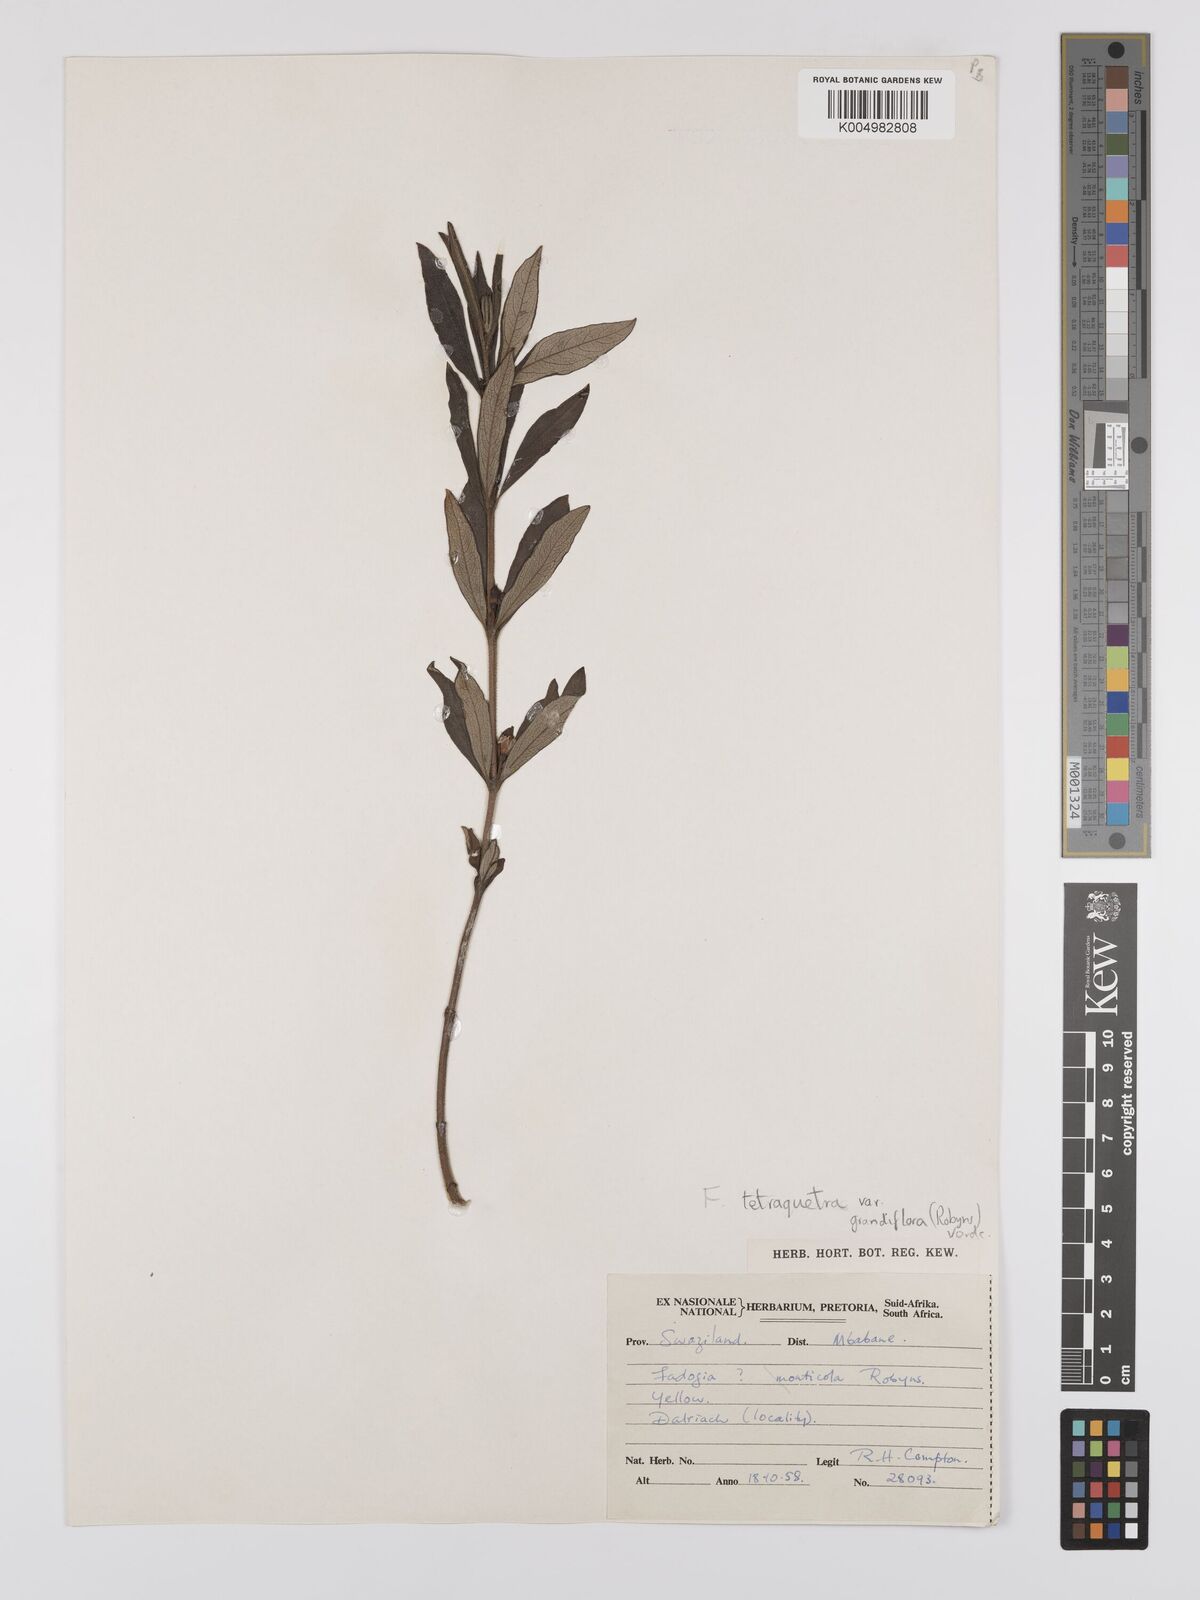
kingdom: Plantae
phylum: Tracheophyta
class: Magnoliopsida
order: Gentianales
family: Rubiaceae
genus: Fadogia
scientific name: Fadogia tetraquetra
